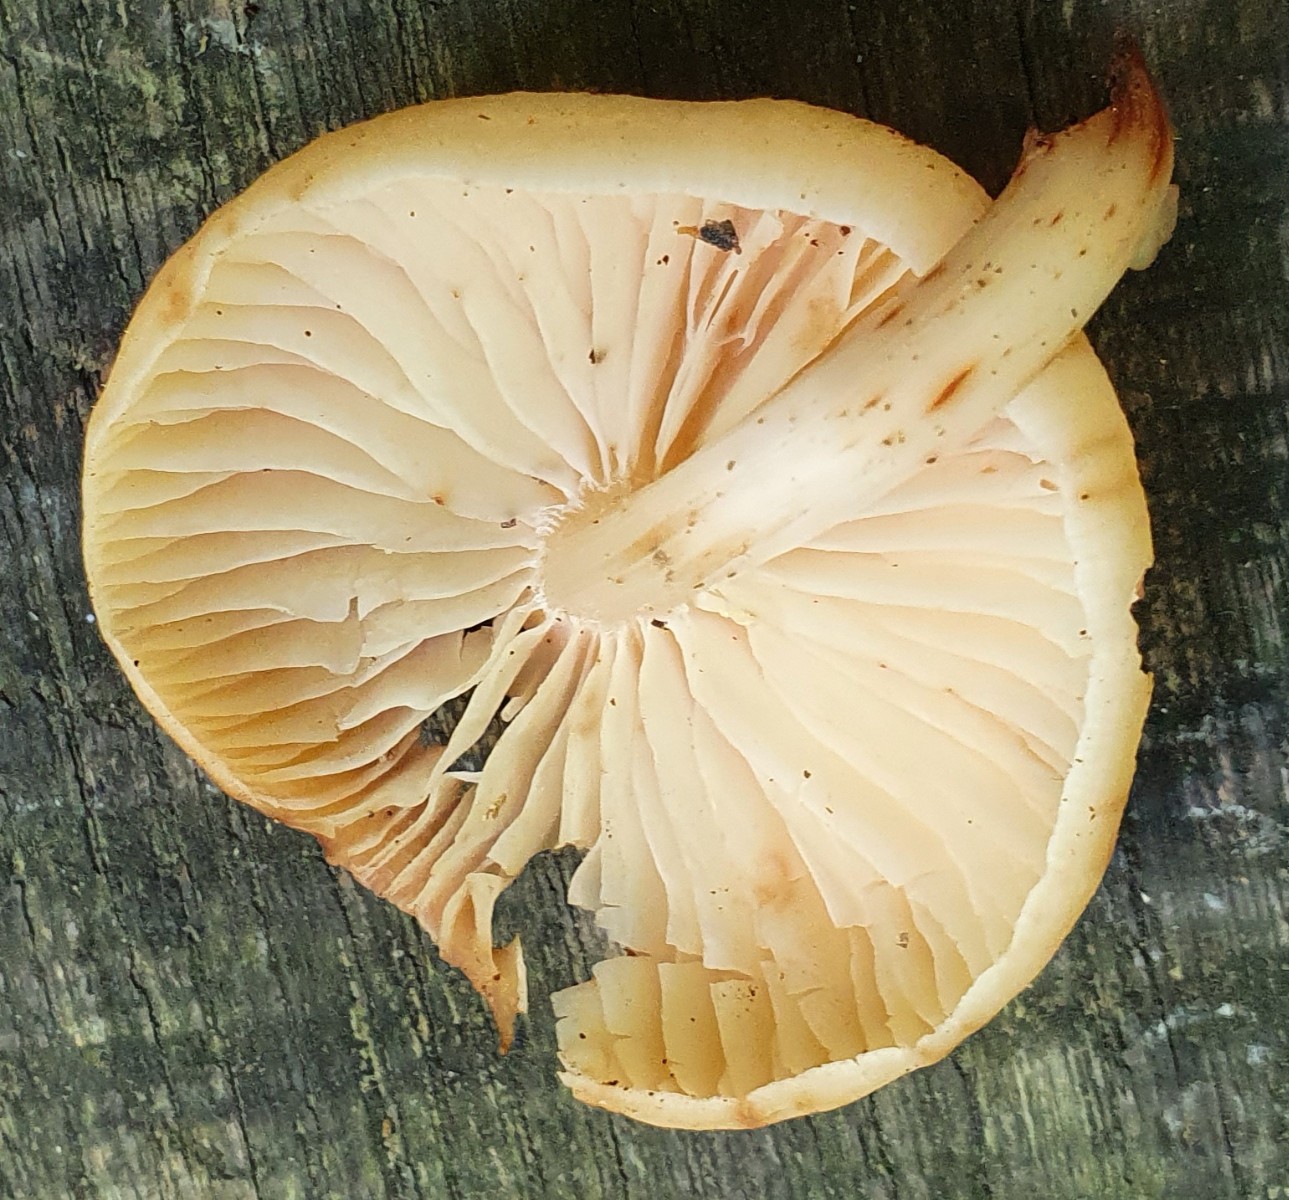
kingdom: Fungi
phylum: Basidiomycota
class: Agaricomycetes
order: Agaricales
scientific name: Agaricales
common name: champignonordenen
